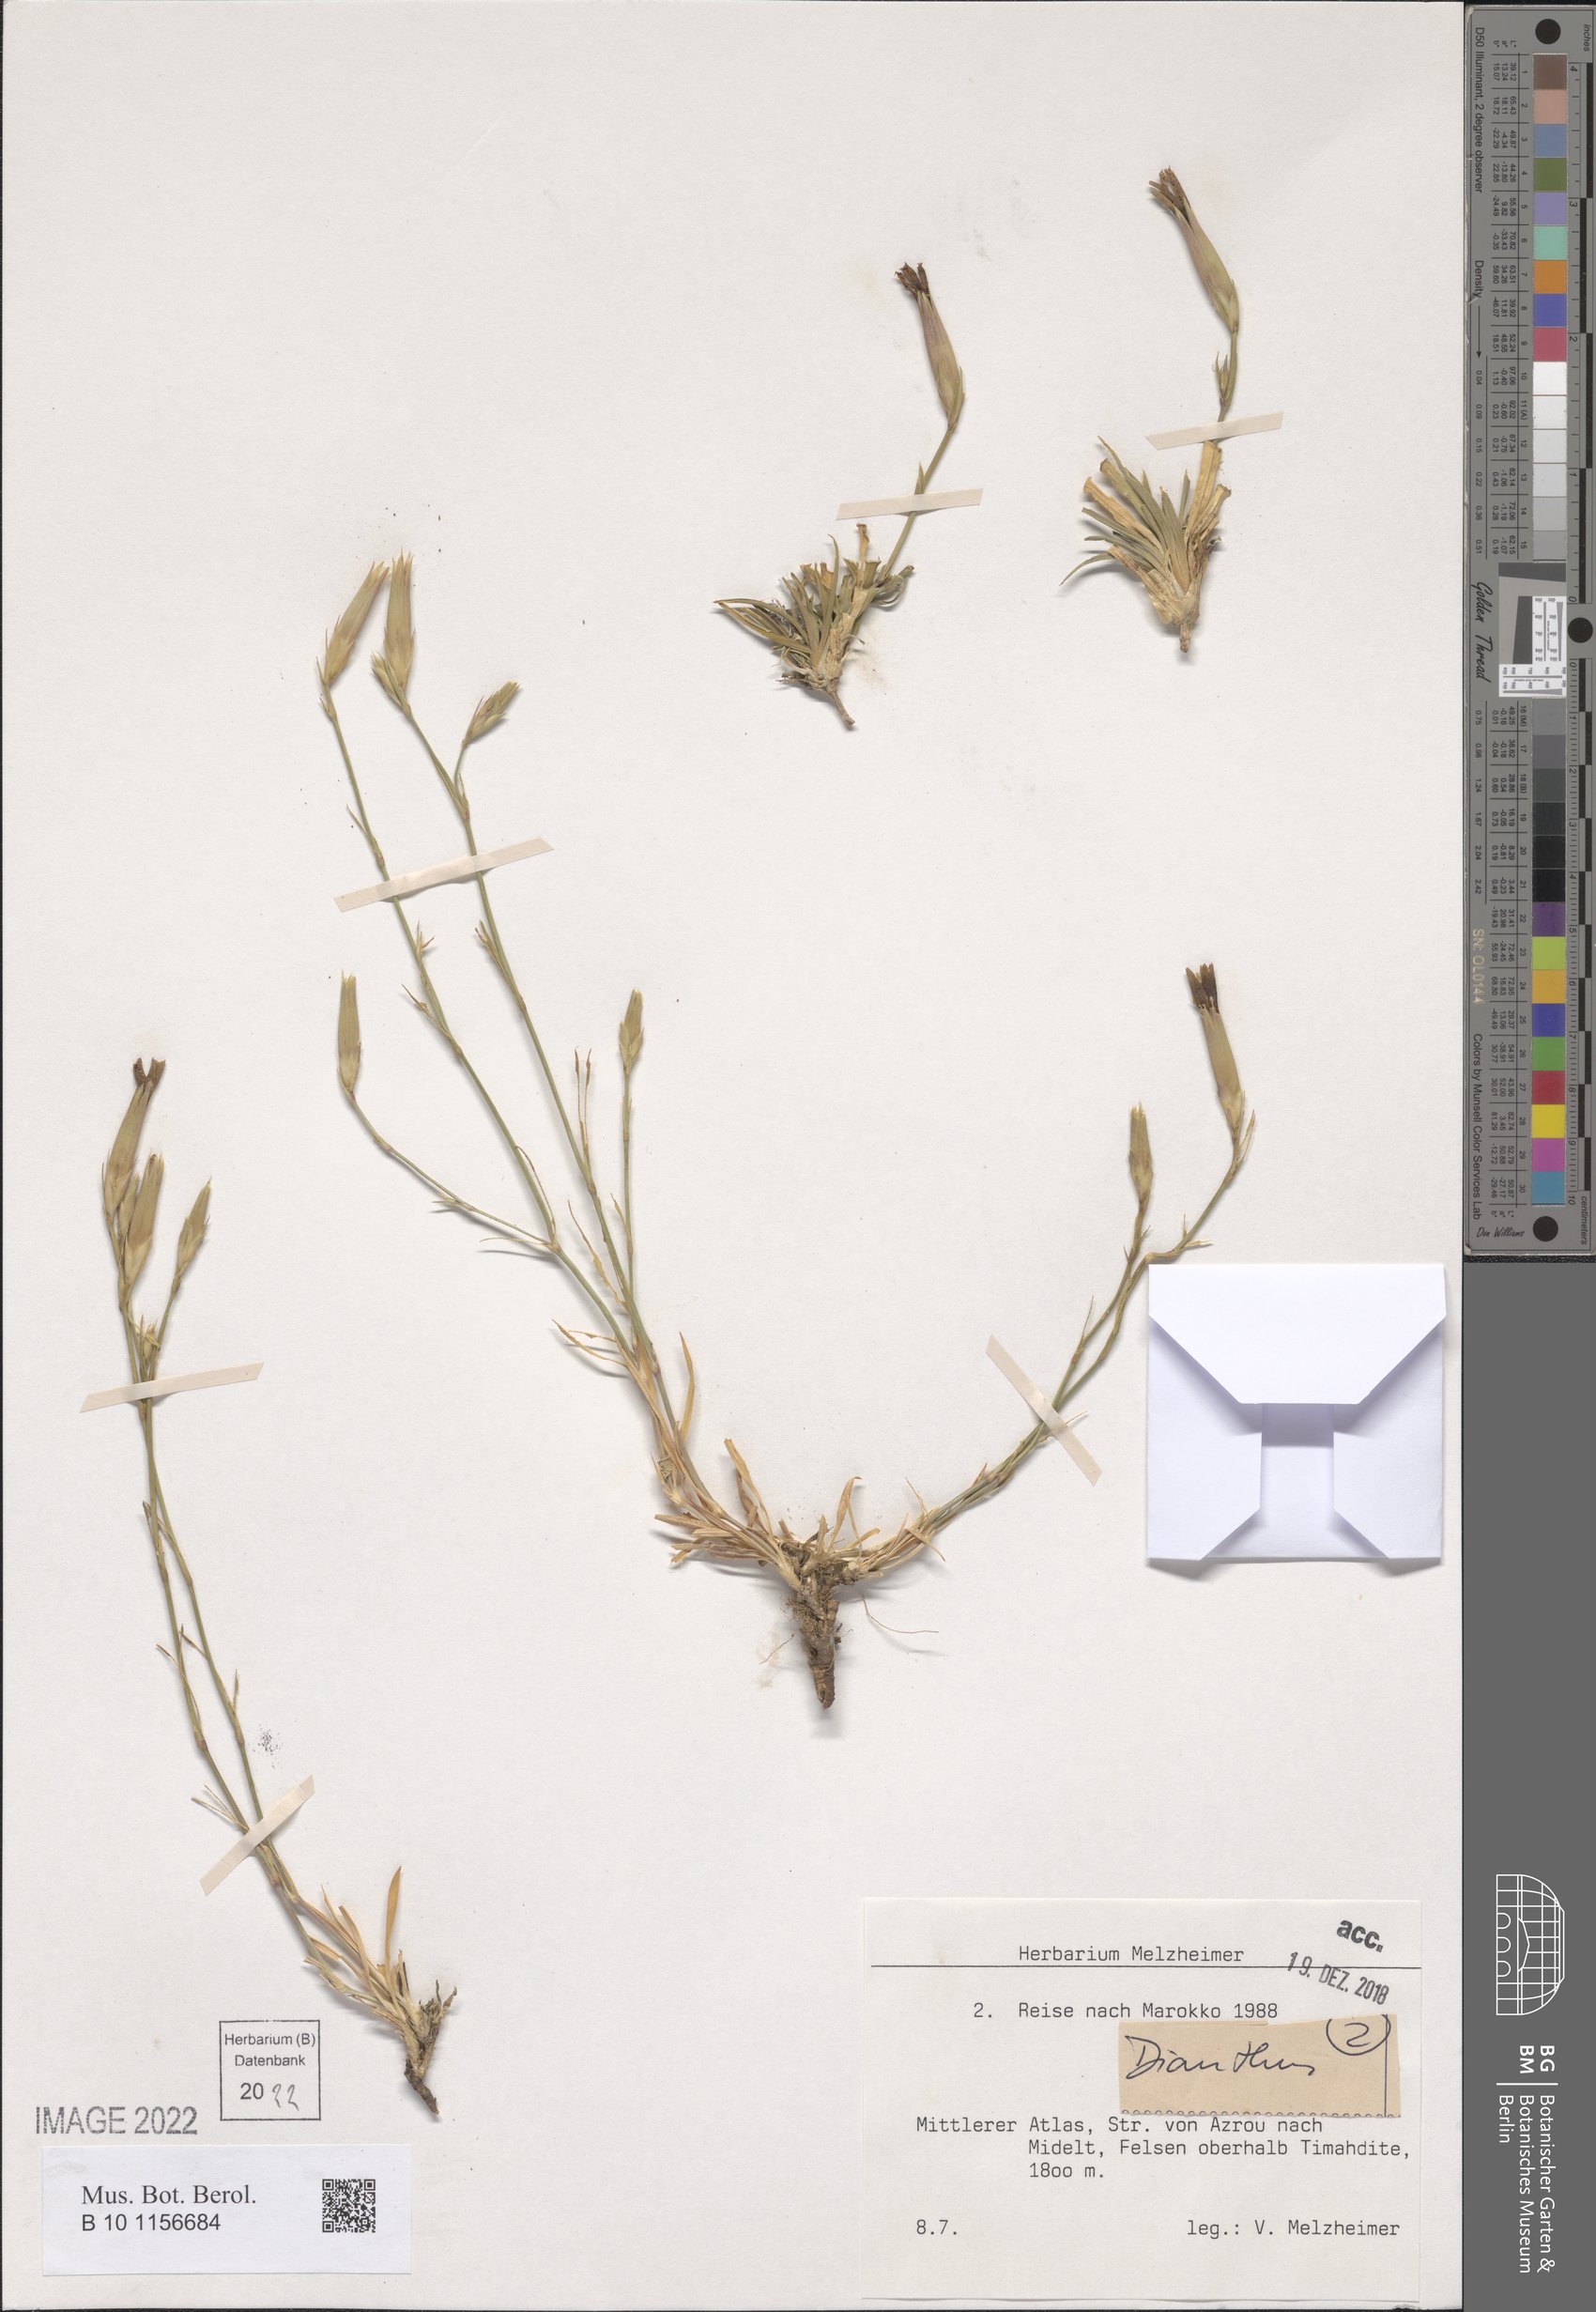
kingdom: Plantae
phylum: Tracheophyta
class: Magnoliopsida
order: Caryophyllales
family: Caryophyllaceae
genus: Dianthus
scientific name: Dianthus
